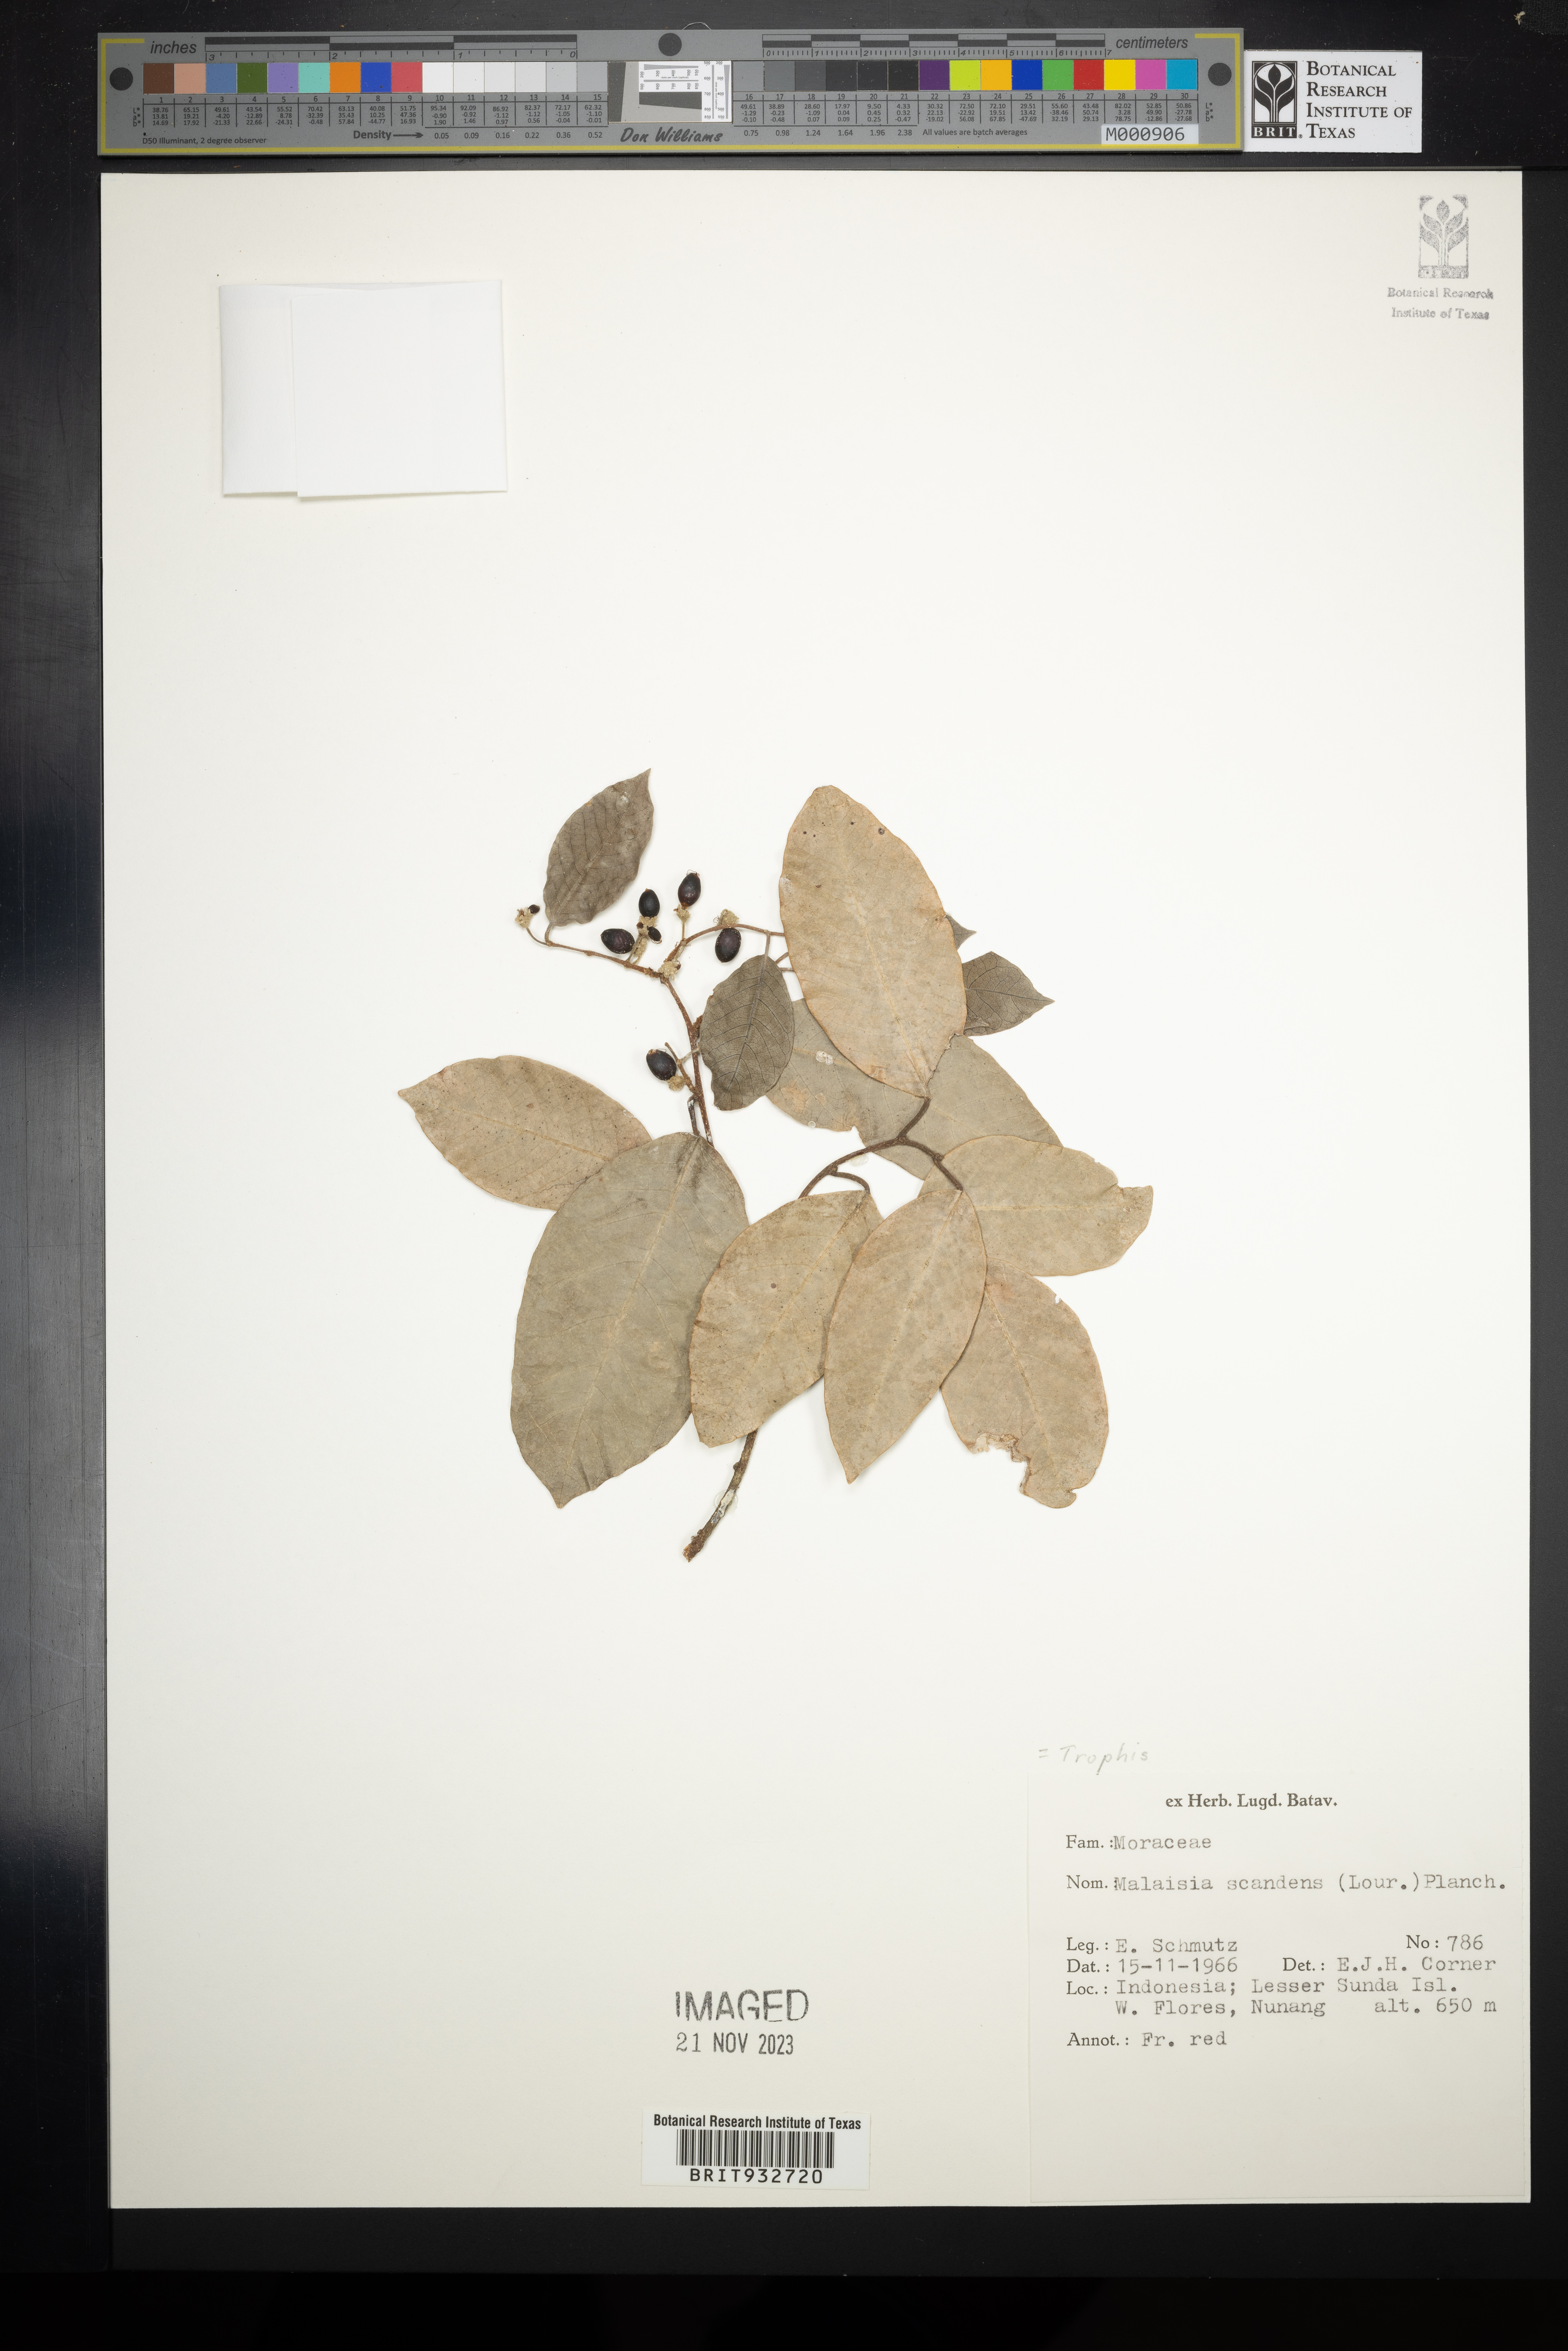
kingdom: Plantae
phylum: Tracheophyta
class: Magnoliopsida
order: Rosales
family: Moraceae
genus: Trophis
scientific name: Trophis
